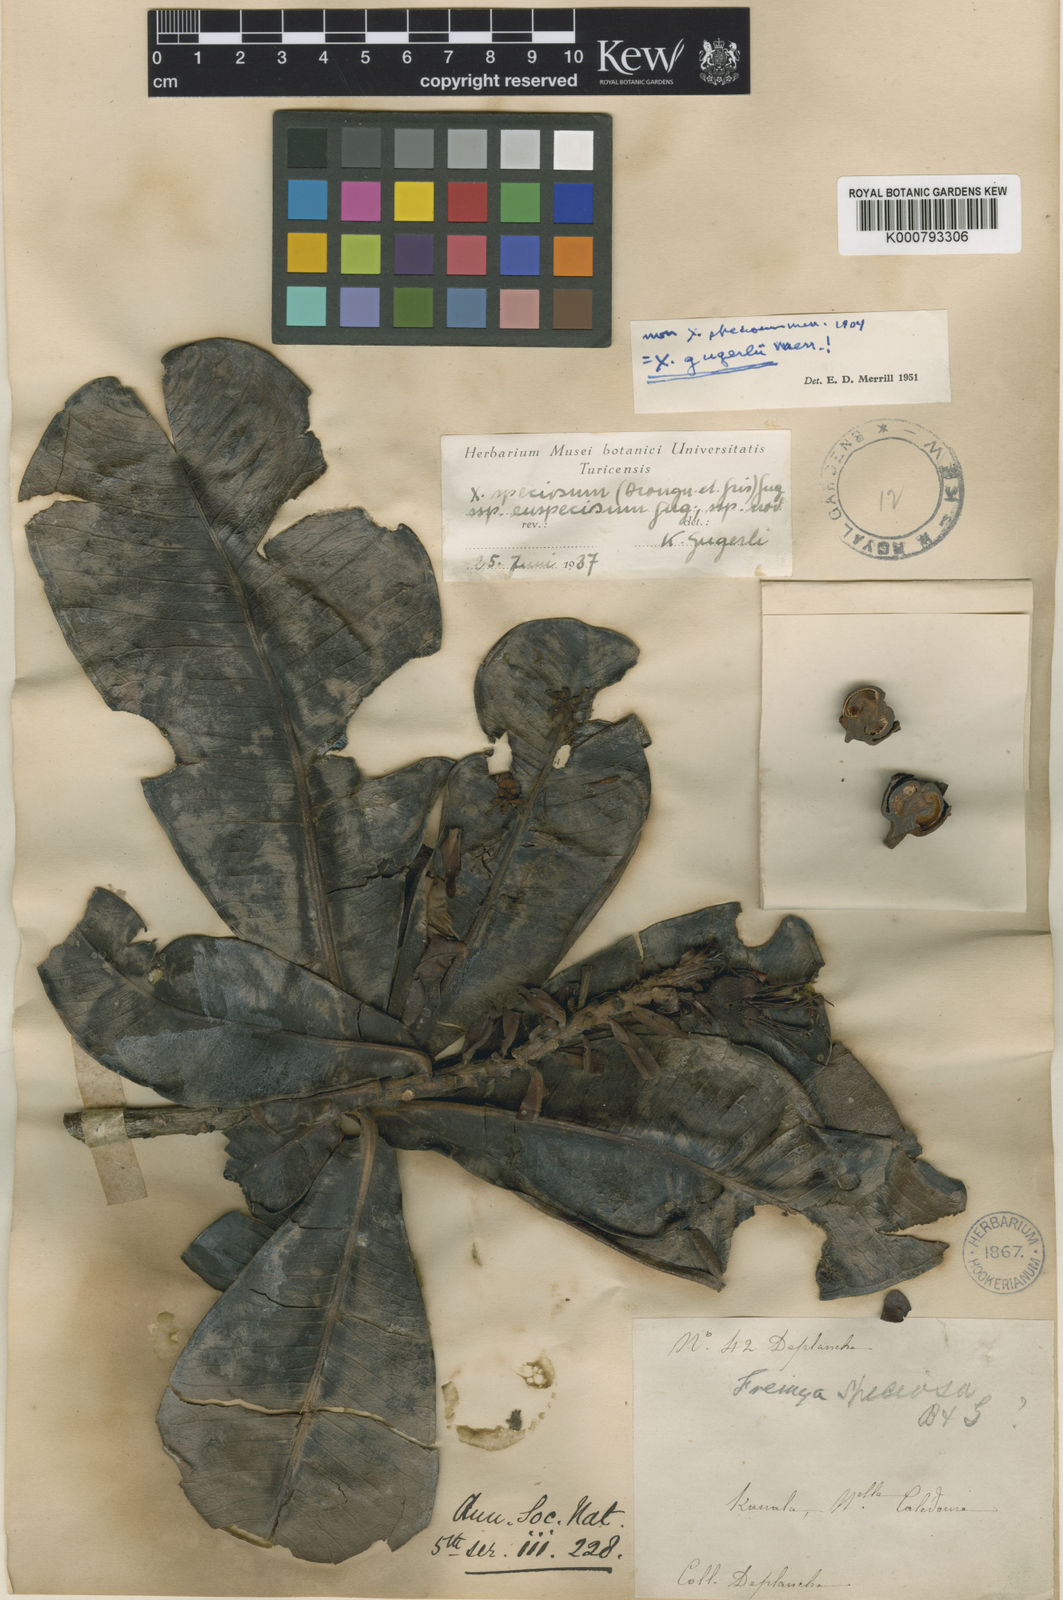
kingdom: Plantae
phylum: Tracheophyta
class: Magnoliopsida
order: Myrtales
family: Myrtaceae
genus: Xanthostemon
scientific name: Xanthostemon speciosus
